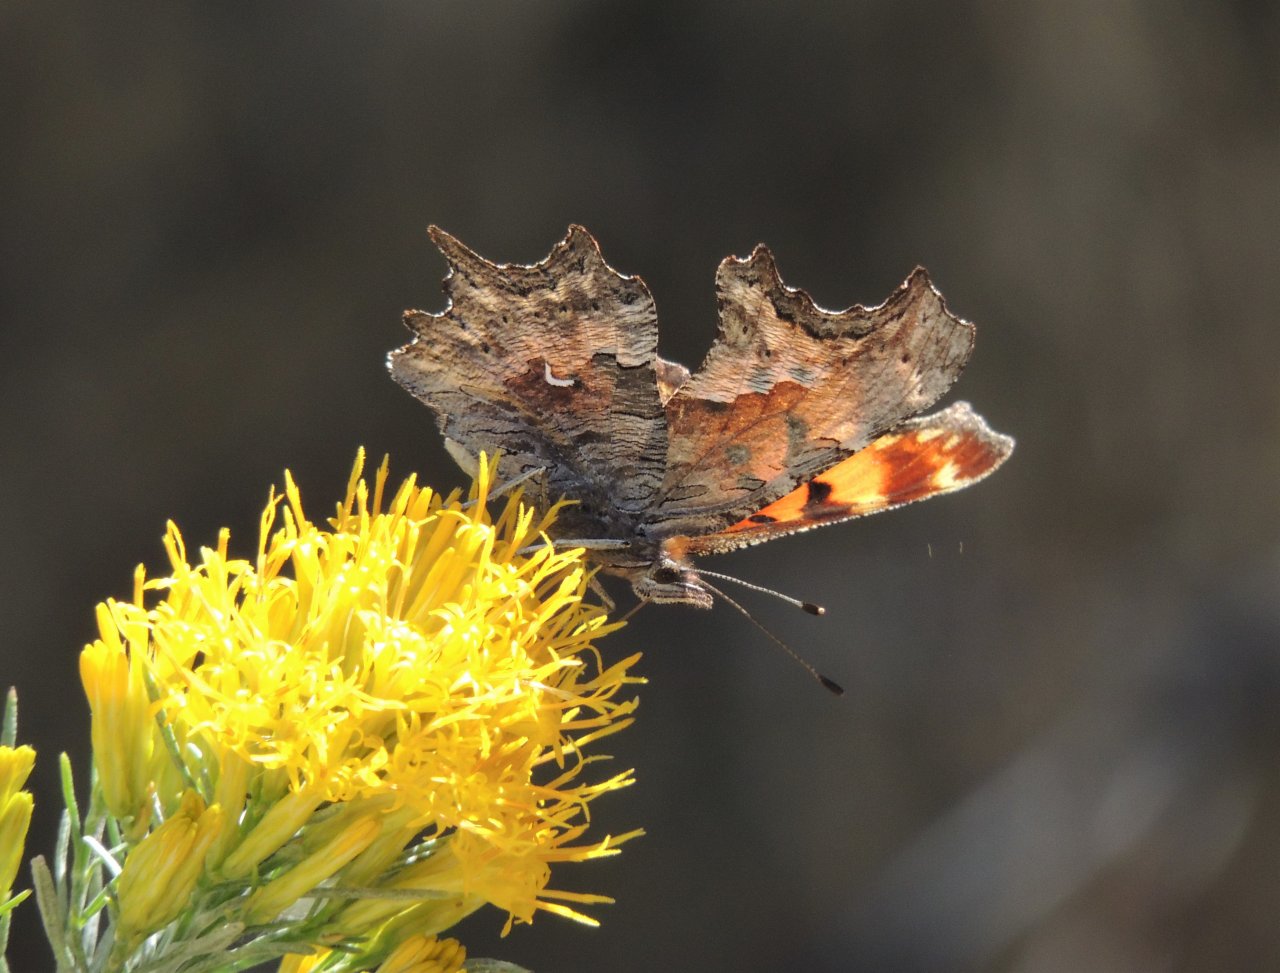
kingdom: Animalia
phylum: Arthropoda
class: Insecta
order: Lepidoptera
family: Nymphalidae
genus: Polygonia
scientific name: Polygonia gracilis
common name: Hoary Comma
